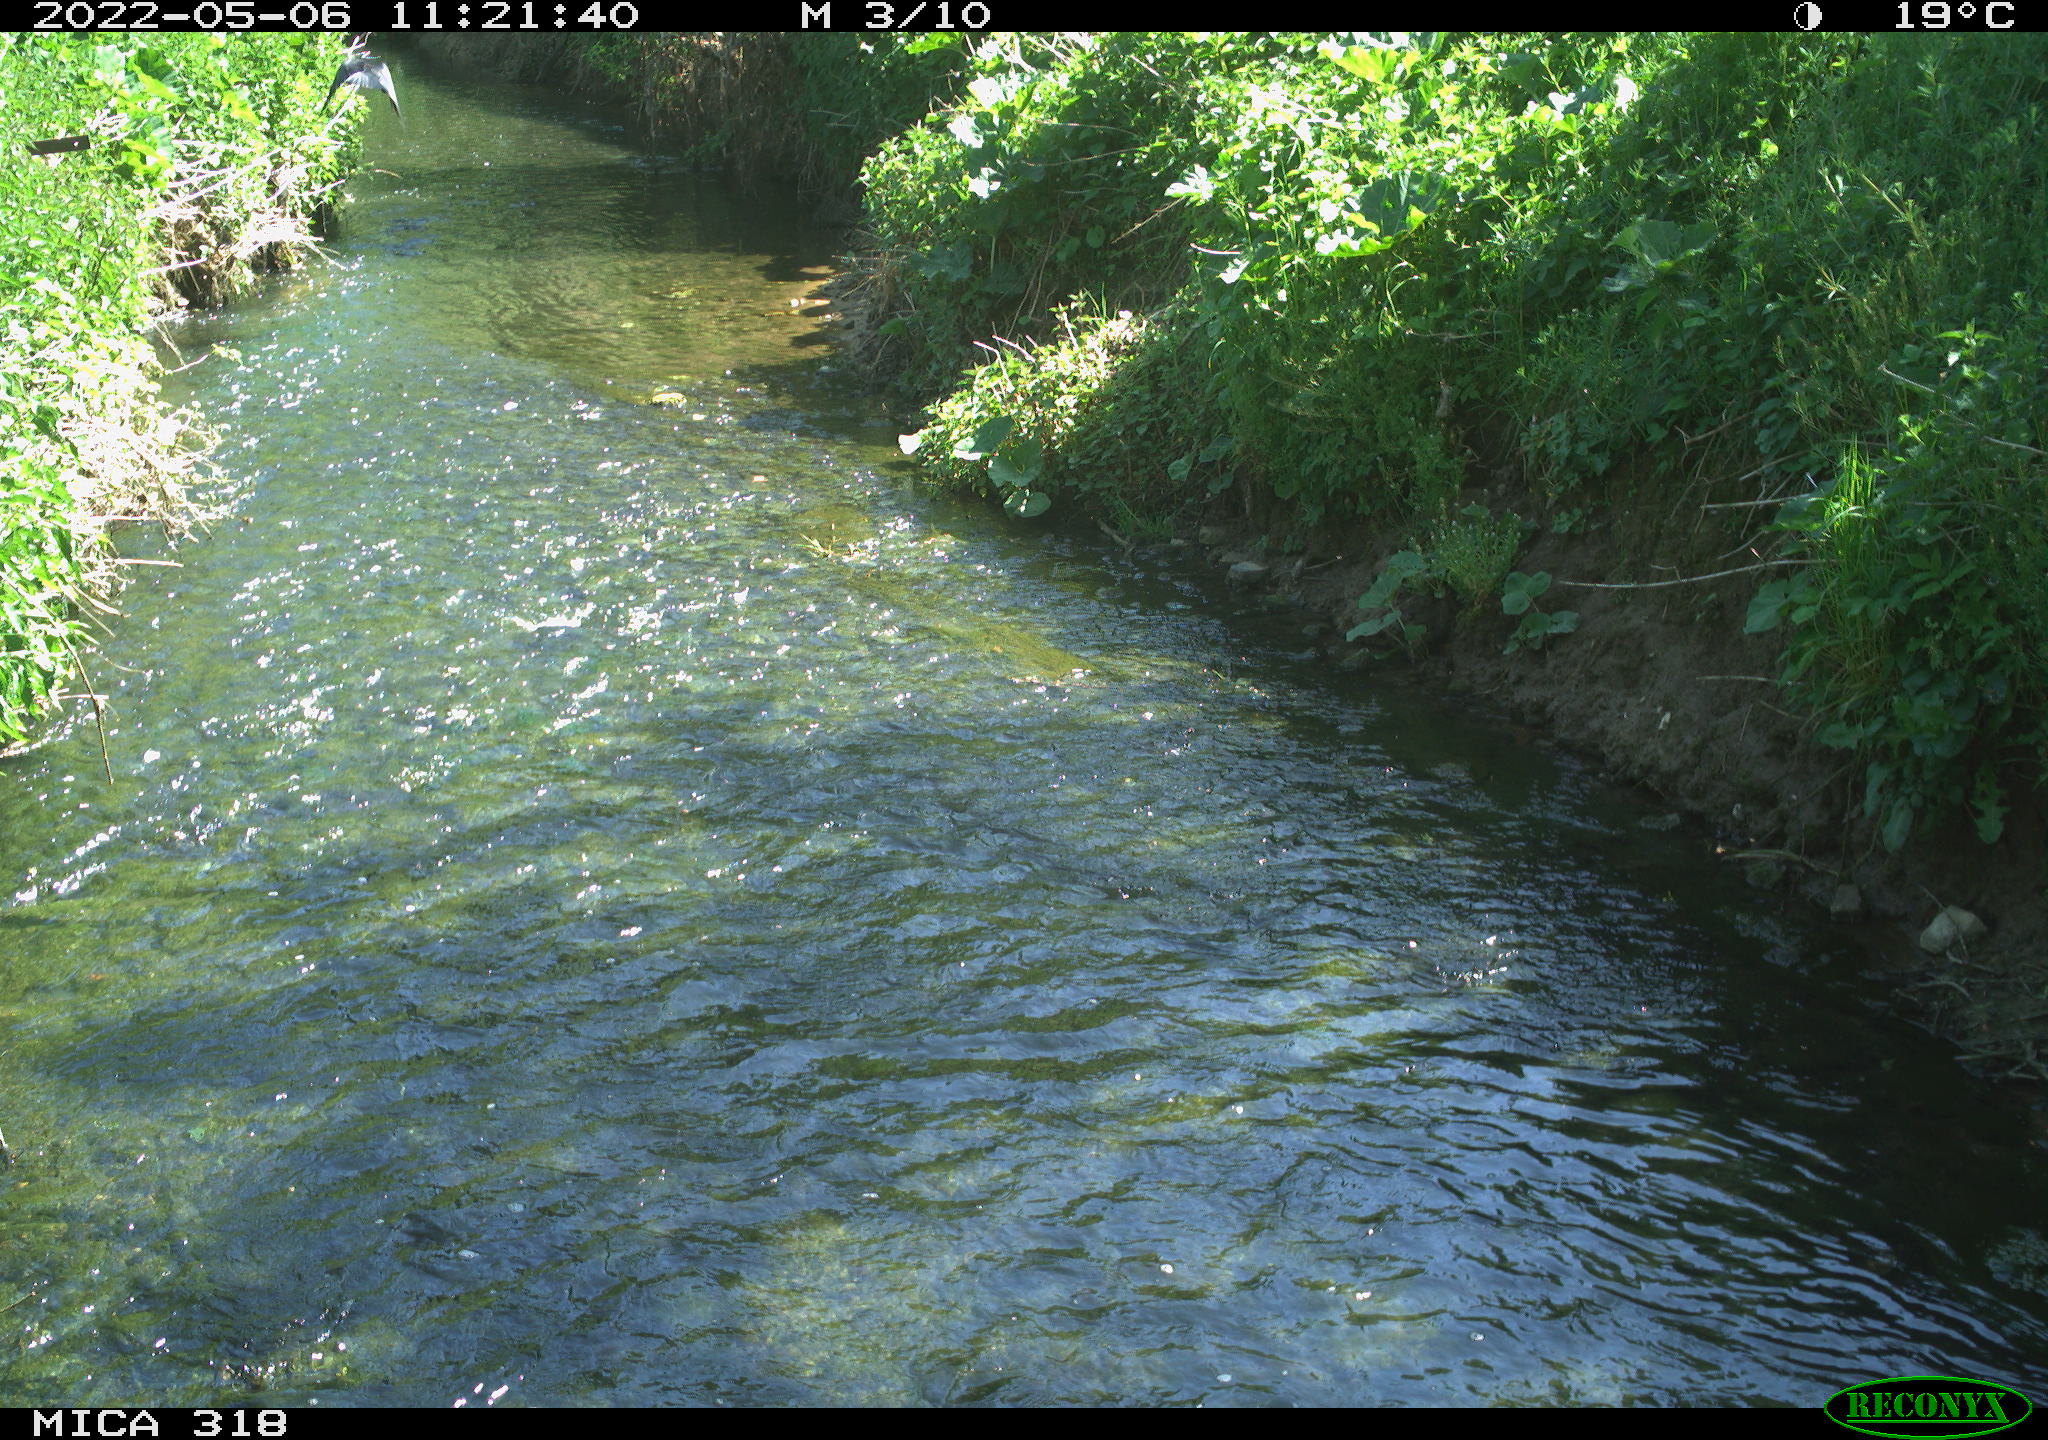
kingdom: Animalia
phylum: Chordata
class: Aves
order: Passeriformes
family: Corvidae
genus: Corvus
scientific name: Corvus corone
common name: Carrion crow
